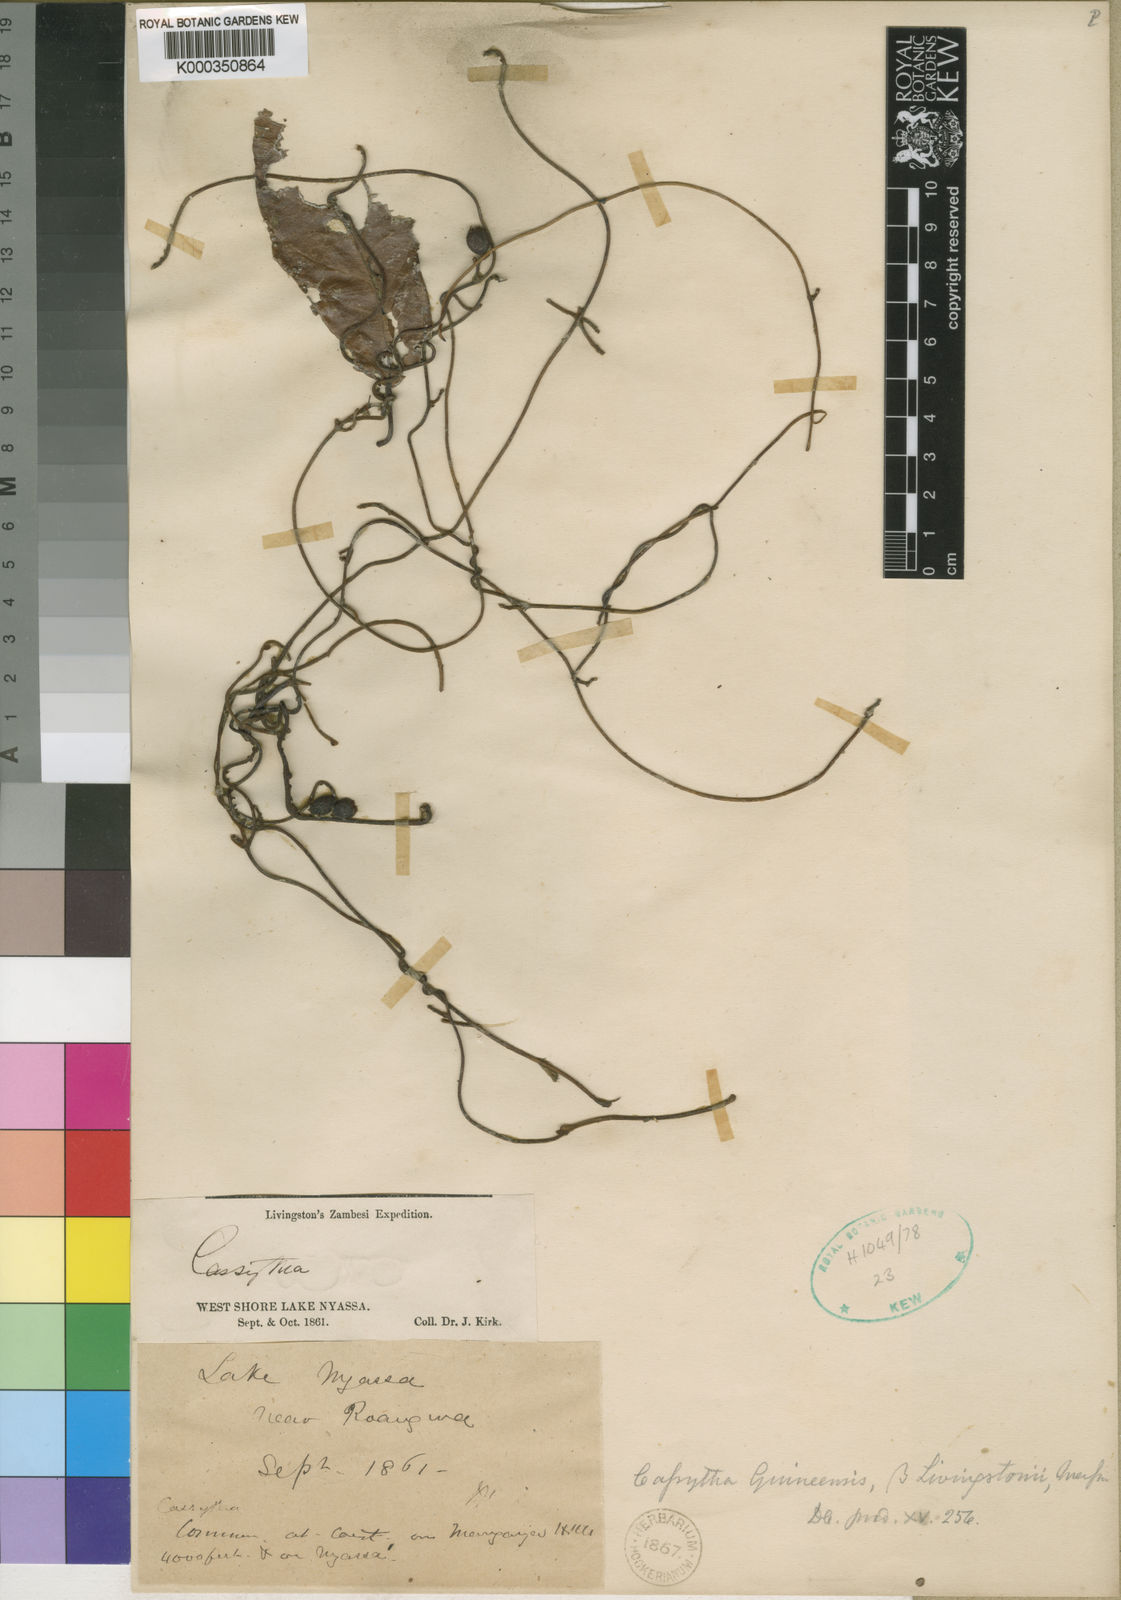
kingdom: Plantae
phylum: Tracheophyta
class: Magnoliopsida
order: Laurales
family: Lauraceae
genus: Cassytha
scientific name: Cassytha filiformis
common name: Dodder-laurel
